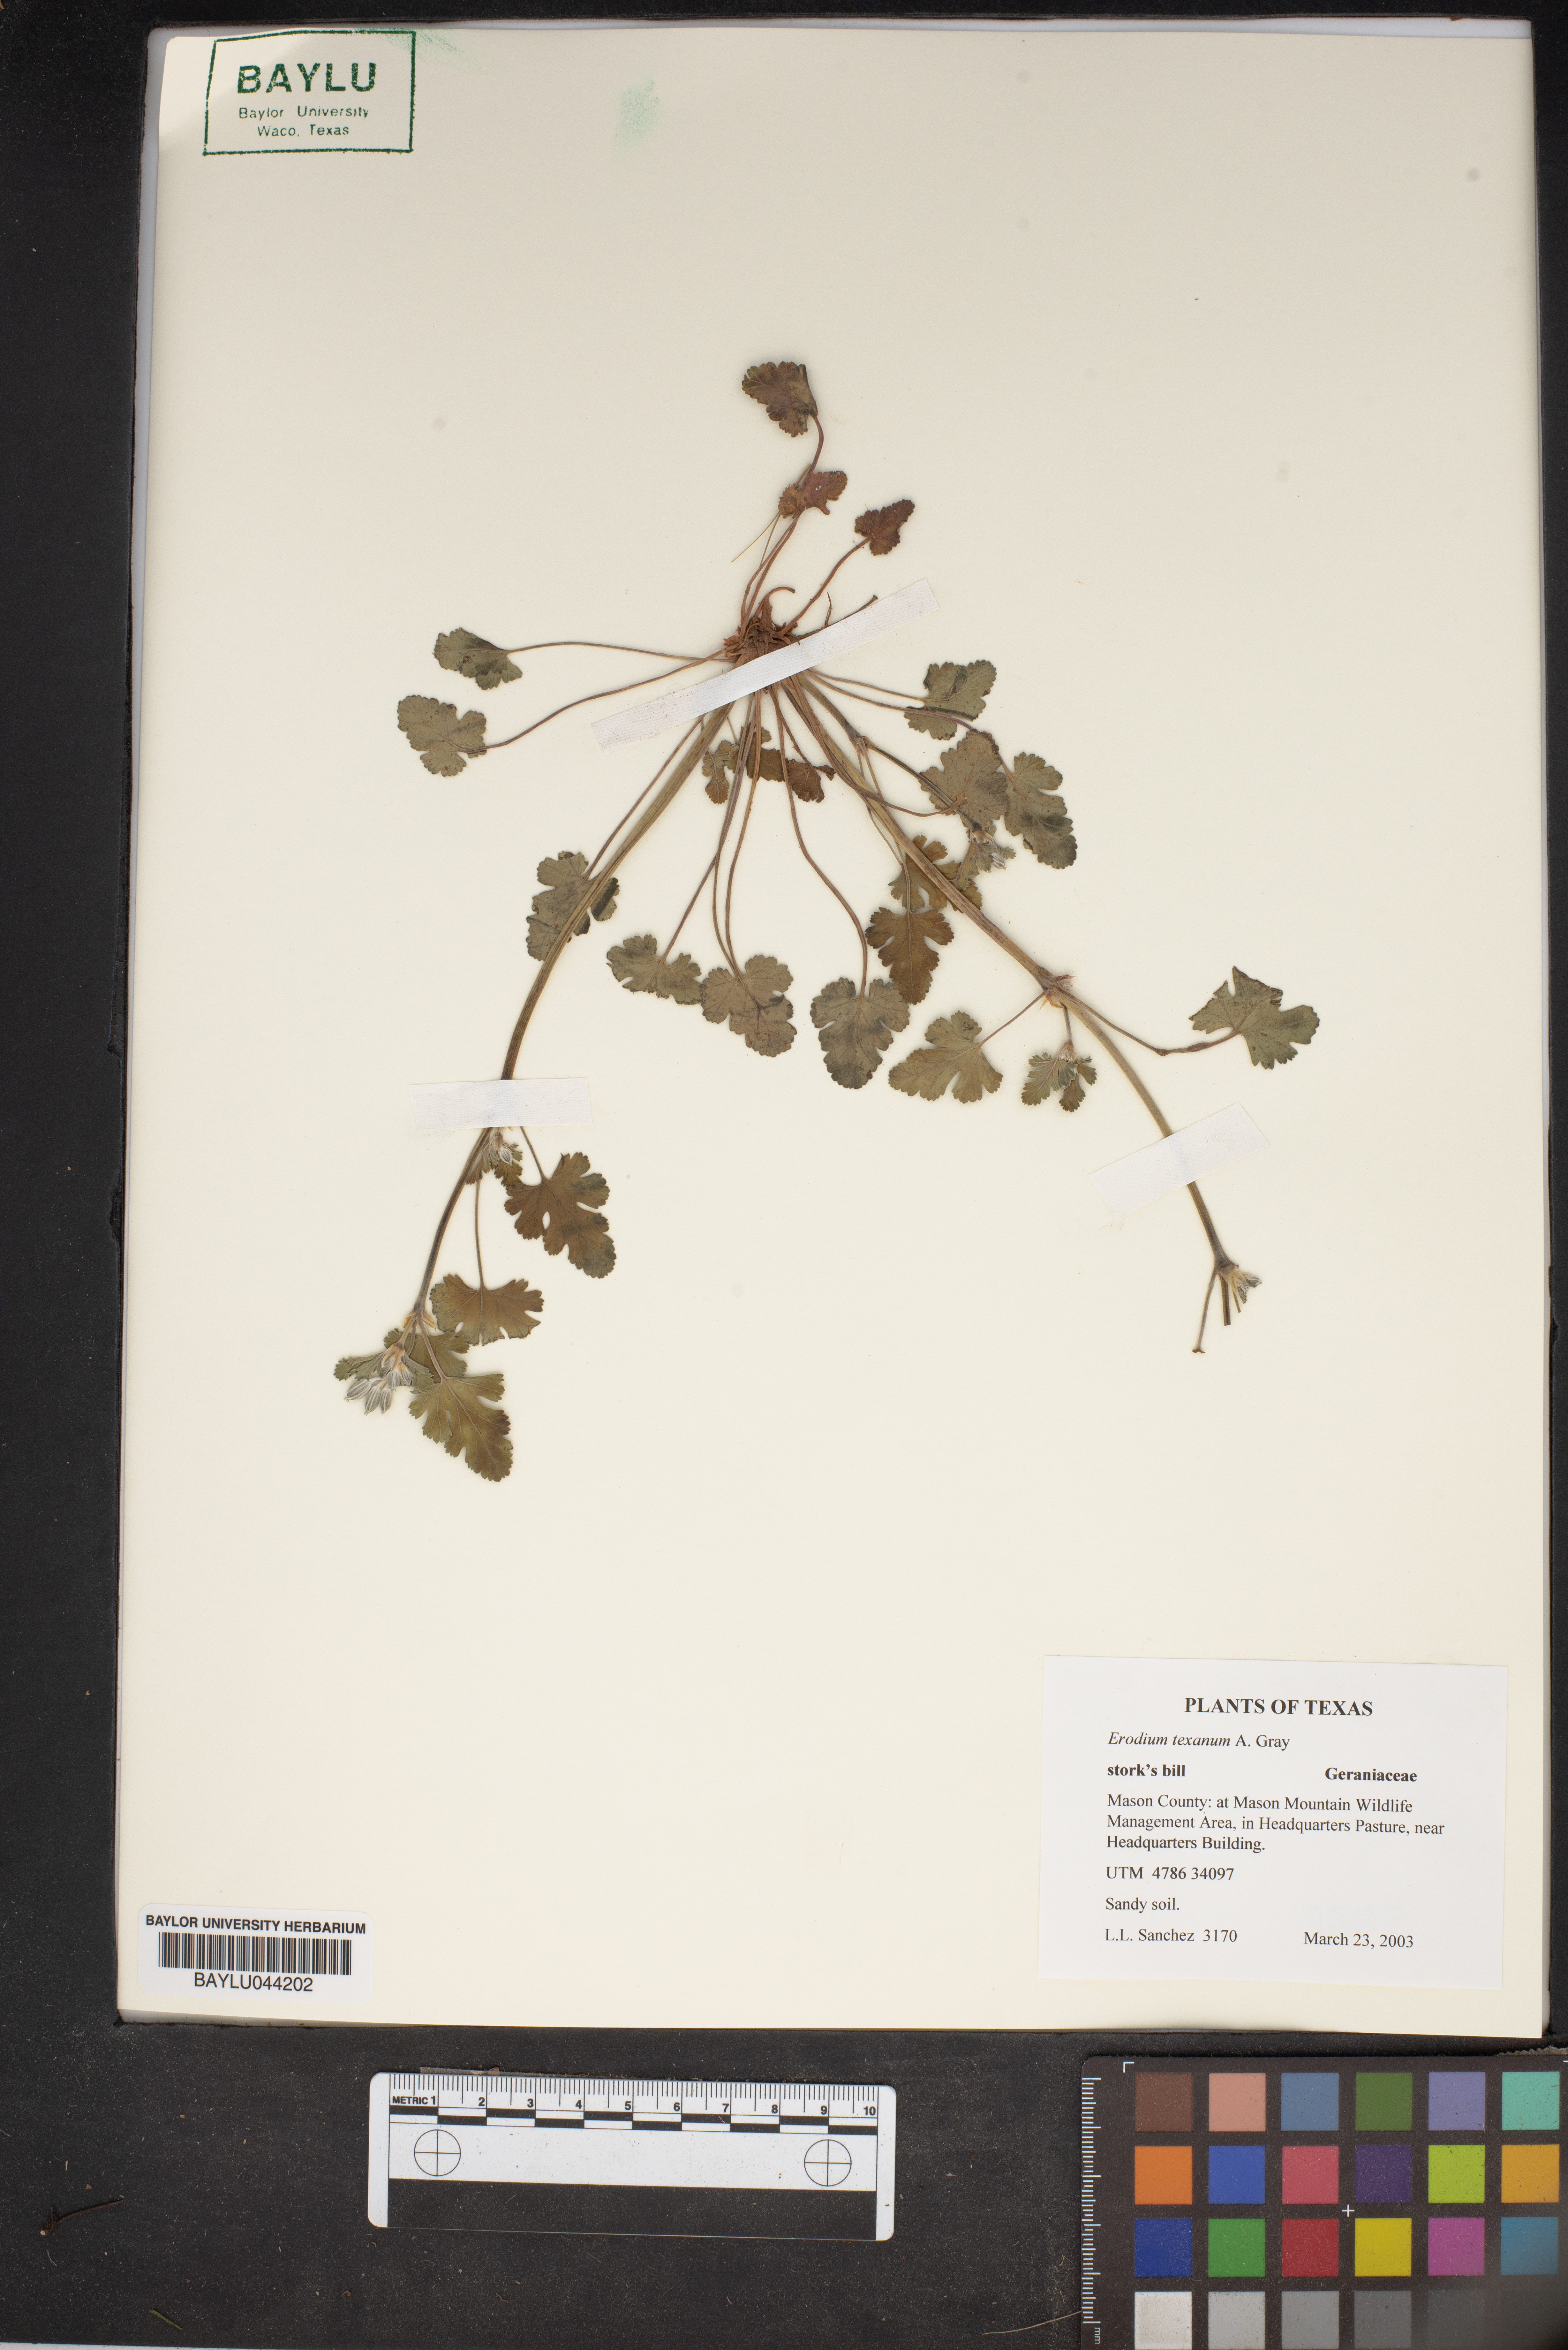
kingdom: Plantae
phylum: Tracheophyta
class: Magnoliopsida
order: Geraniales
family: Geraniaceae
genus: Erodium
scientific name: Erodium texanum
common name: Texas stork's-bill
